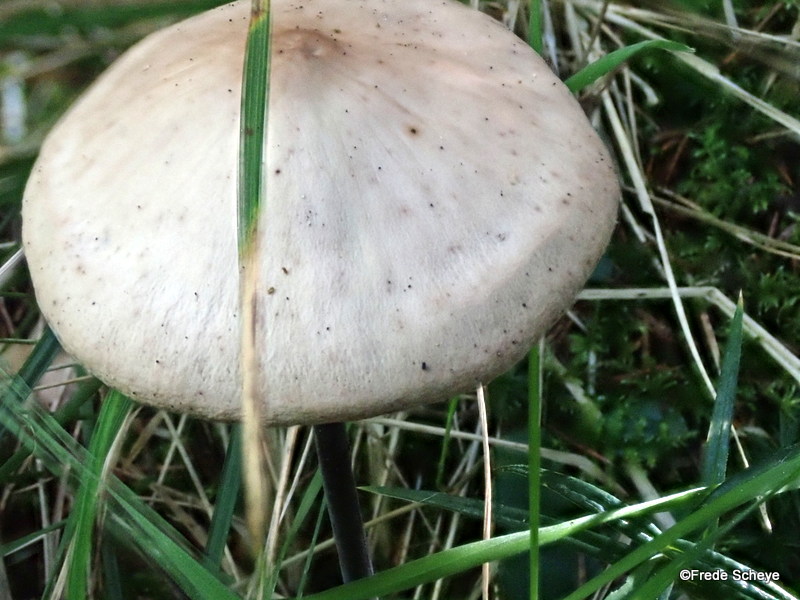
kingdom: Fungi
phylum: Basidiomycota
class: Agaricomycetes
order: Agaricales
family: Omphalotaceae
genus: Mycetinis
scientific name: Mycetinis alliaceus
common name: stor løghat
